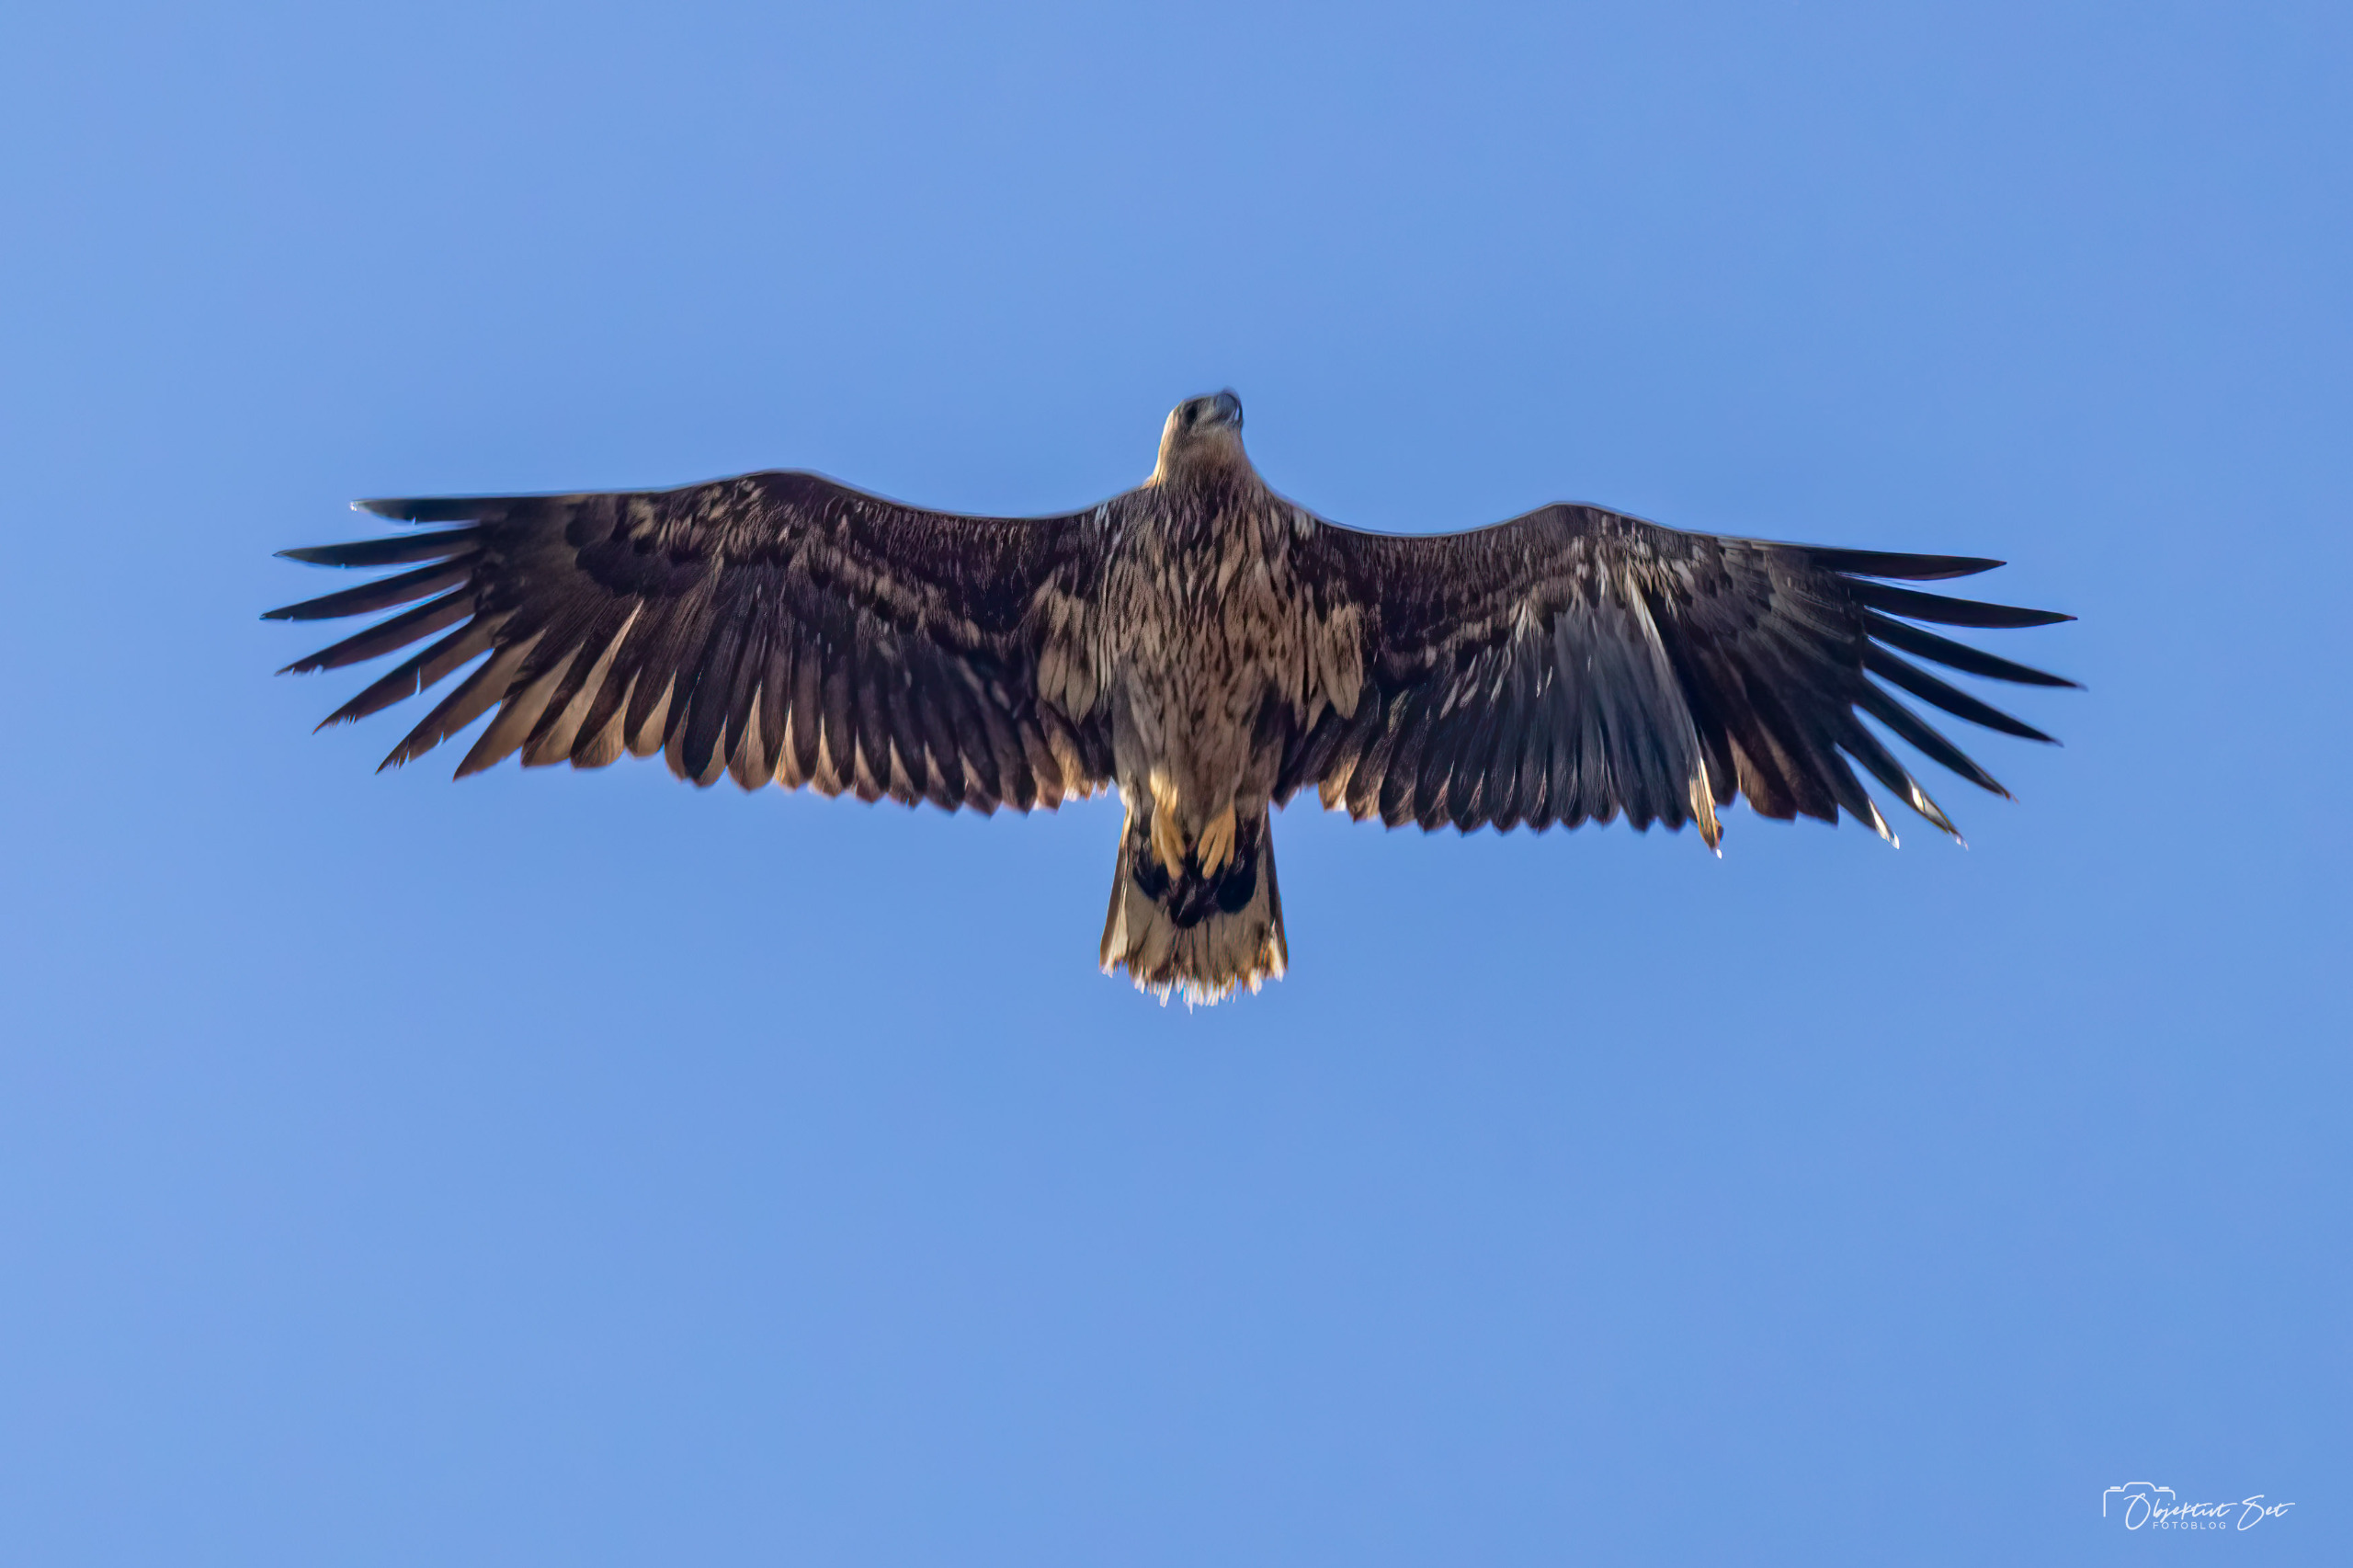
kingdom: Animalia
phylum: Chordata
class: Aves
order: Accipitriformes
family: Accipitridae
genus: Haliaeetus
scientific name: Haliaeetus albicilla
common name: Havørn
